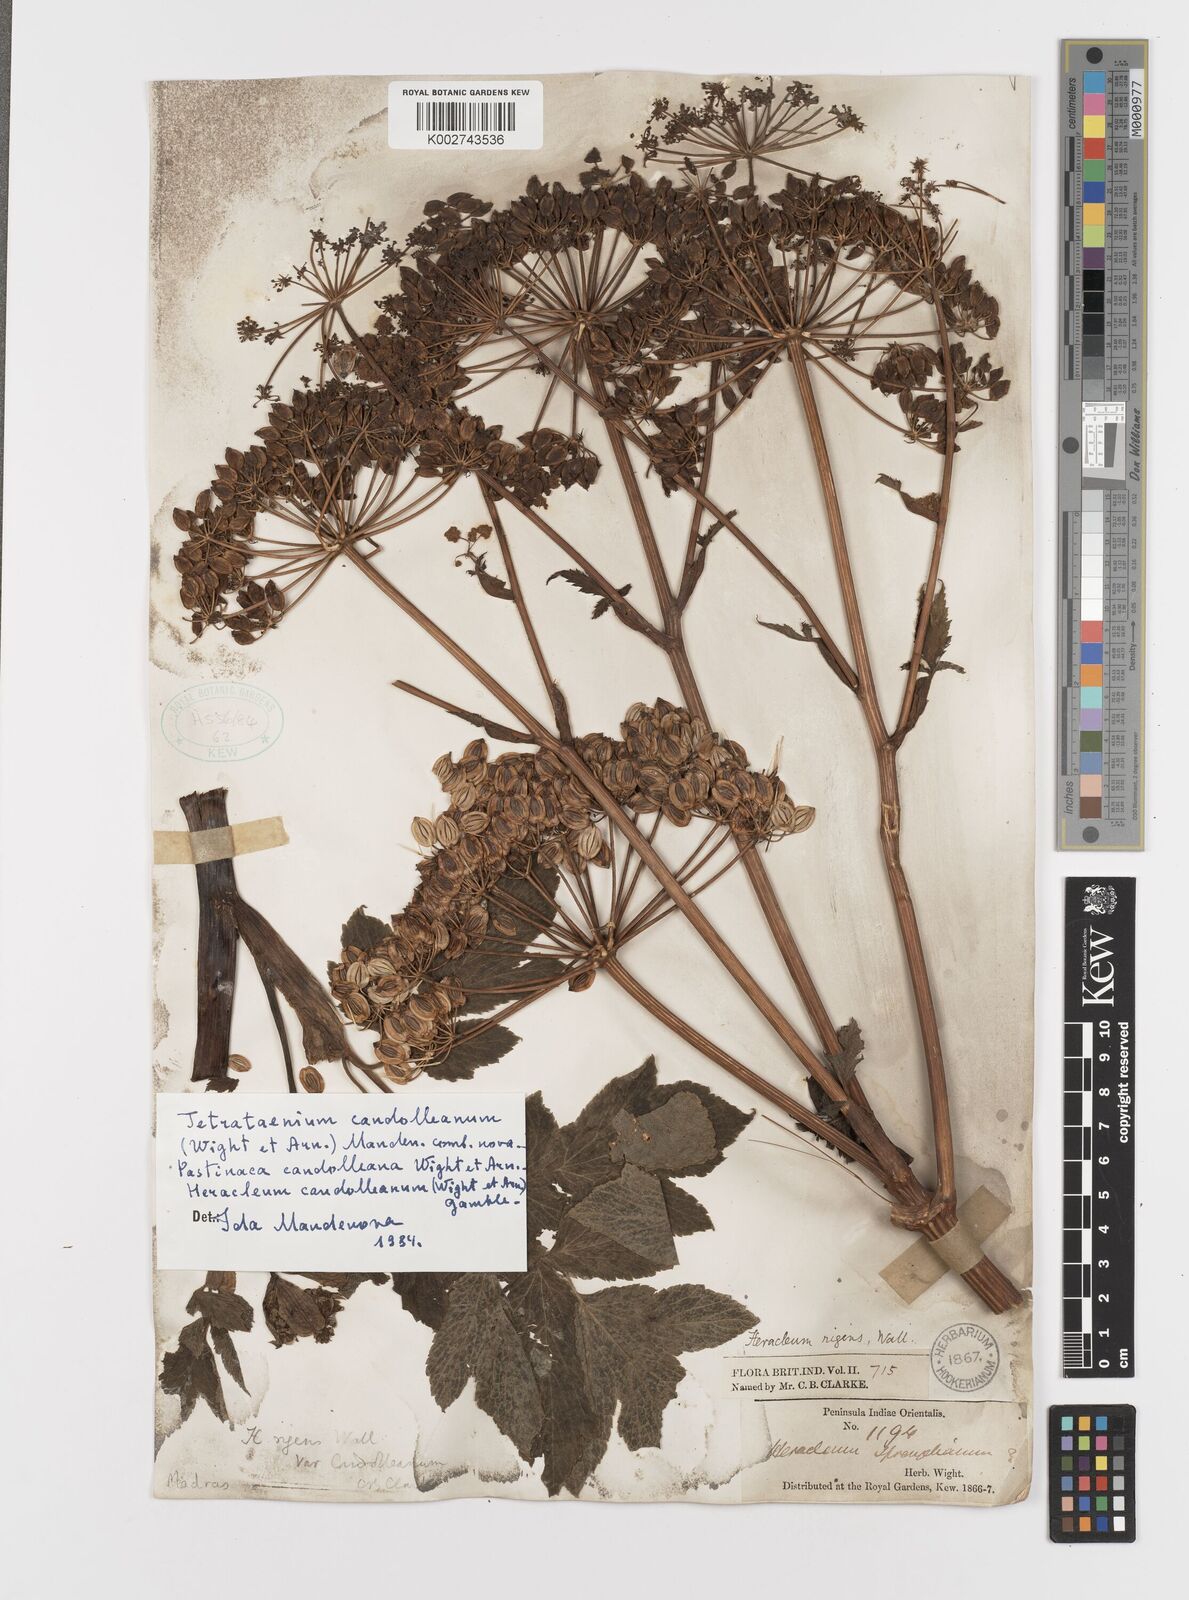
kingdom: Plantae
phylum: Tracheophyta
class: Magnoliopsida
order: Apiales
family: Apiaceae
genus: Tetrataenium
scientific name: Tetrataenium rigens
